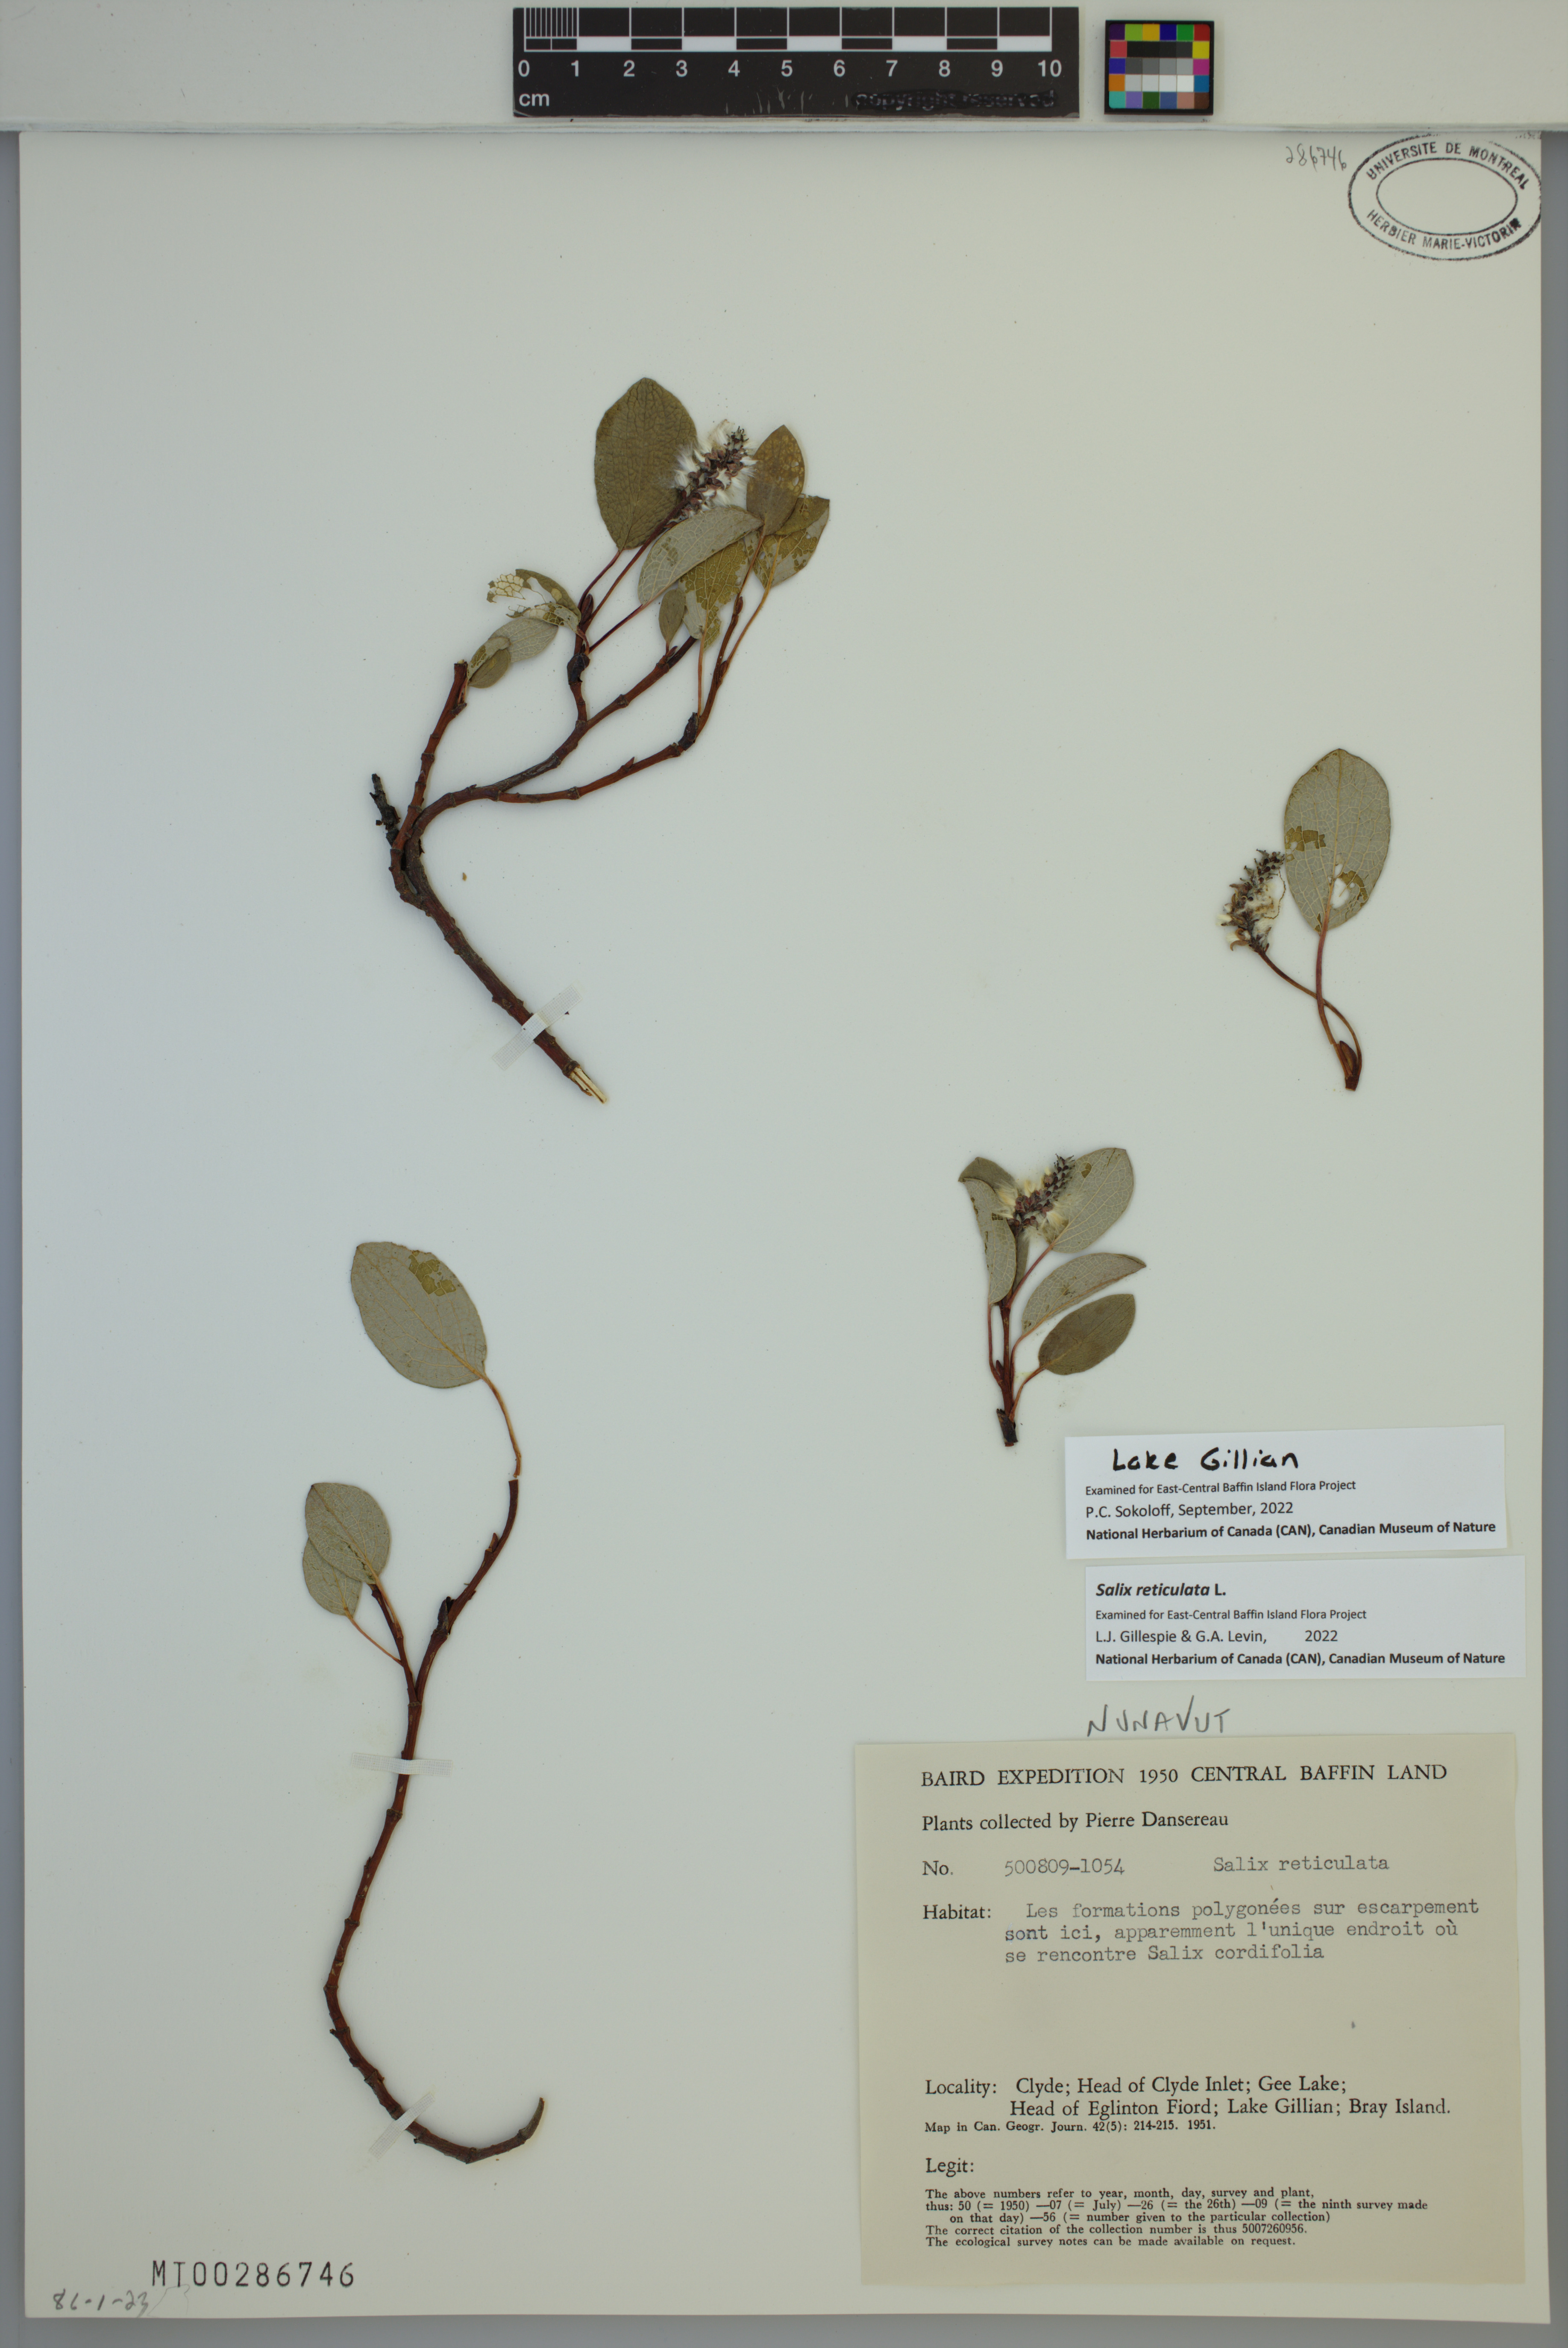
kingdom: Plantae
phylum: Tracheophyta
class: Magnoliopsida
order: Malpighiales
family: Salicaceae
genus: Salix
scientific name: Salix reticulata
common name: Net-leaved willow
